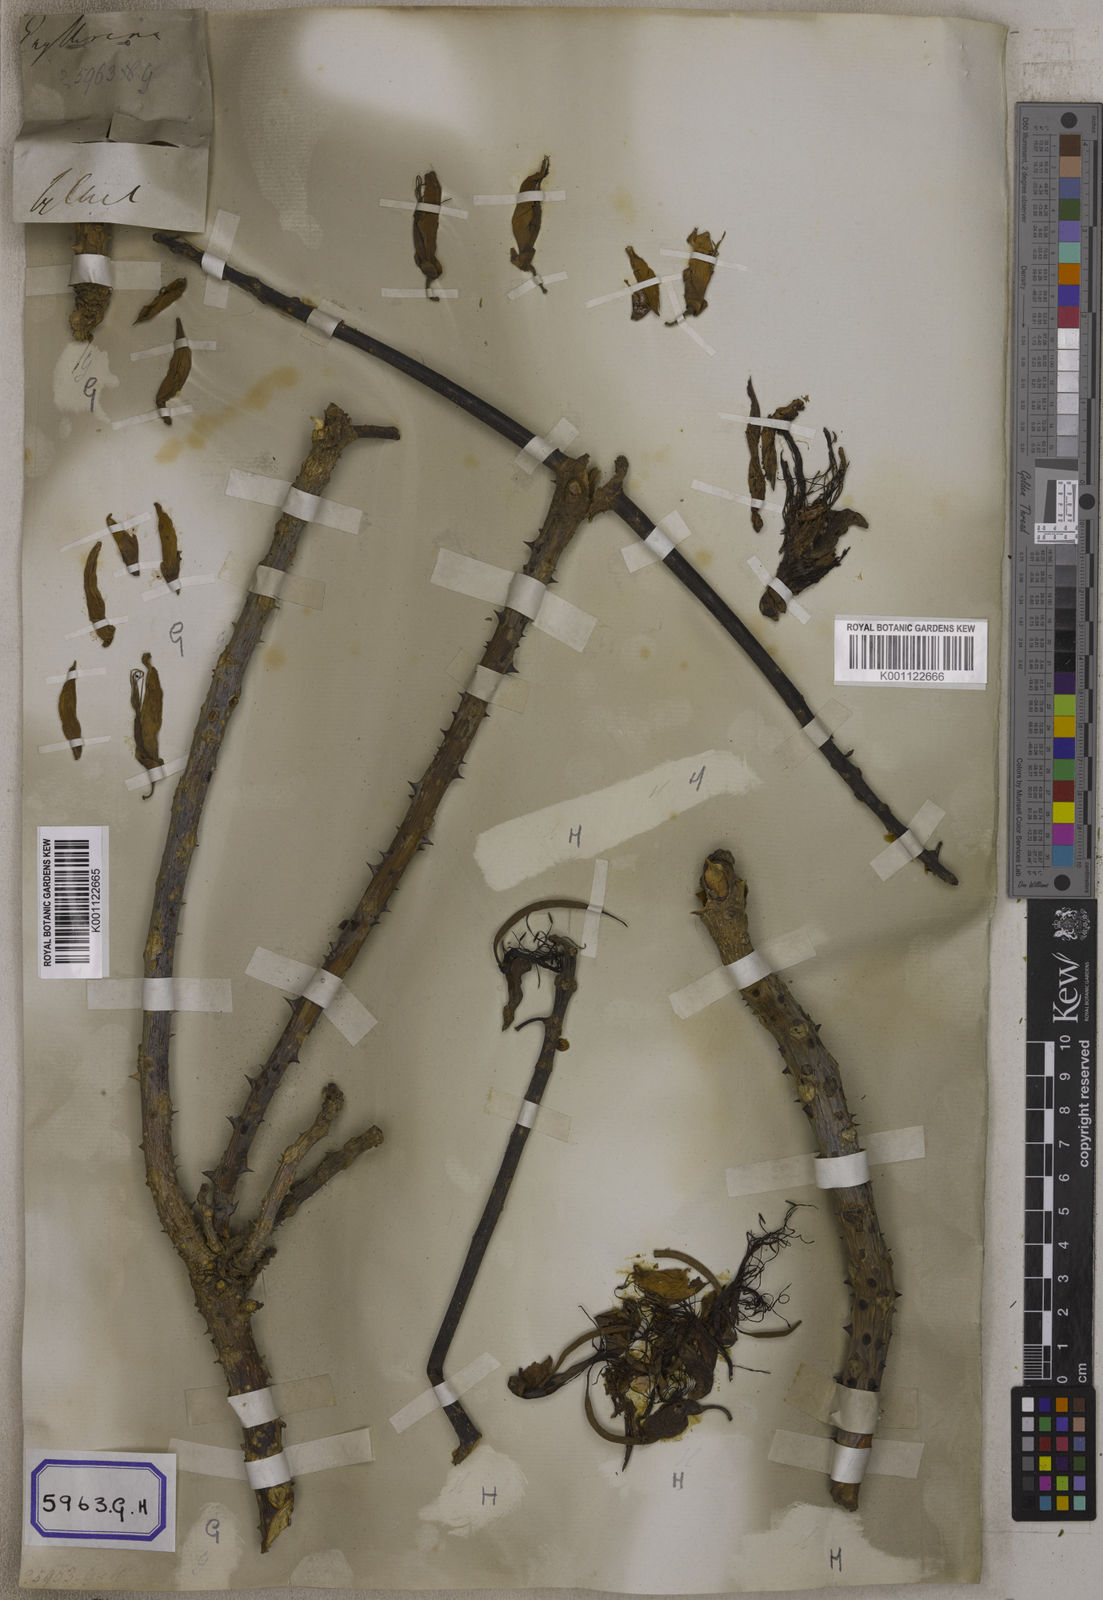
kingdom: Plantae
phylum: Tracheophyta
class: Magnoliopsida
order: Fabales
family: Fabaceae
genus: Erythrina
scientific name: Erythrina variegata
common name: Indian coral tree
